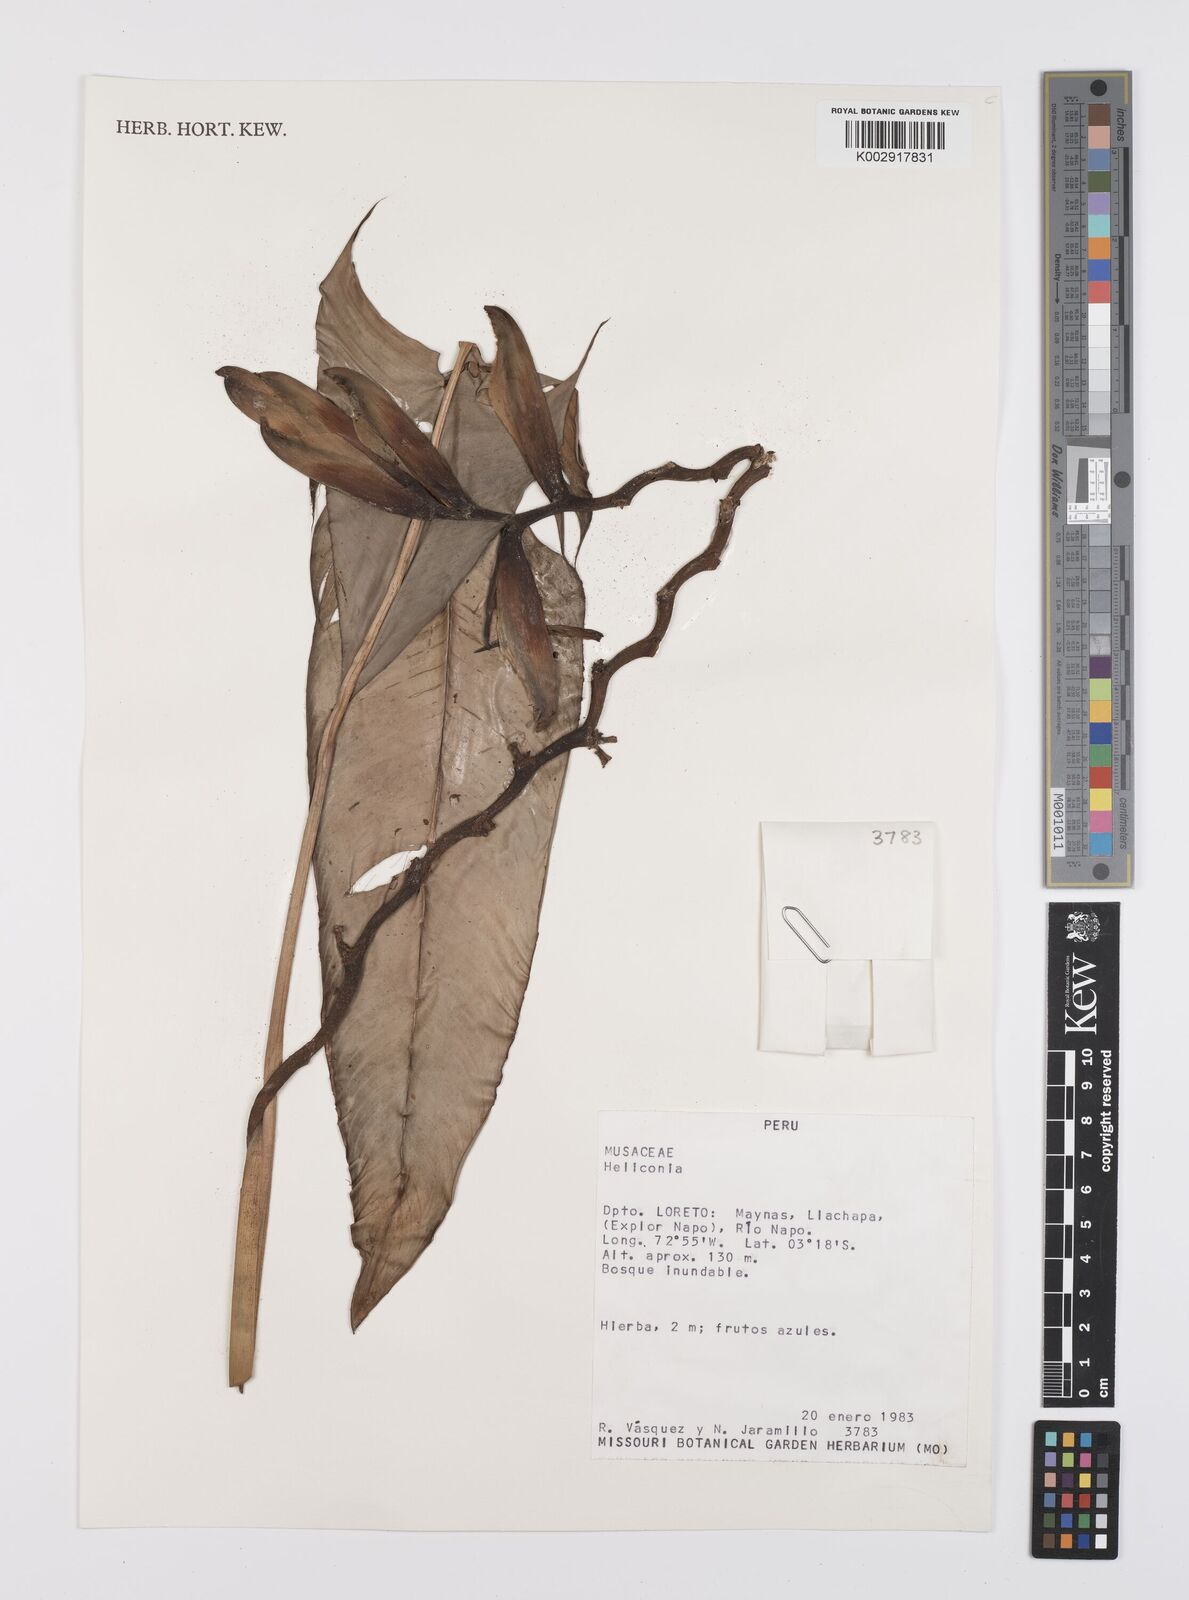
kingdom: Plantae
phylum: Tracheophyta
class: Liliopsida
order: Zingiberales
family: Heliconiaceae
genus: Heliconia
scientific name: Heliconia
